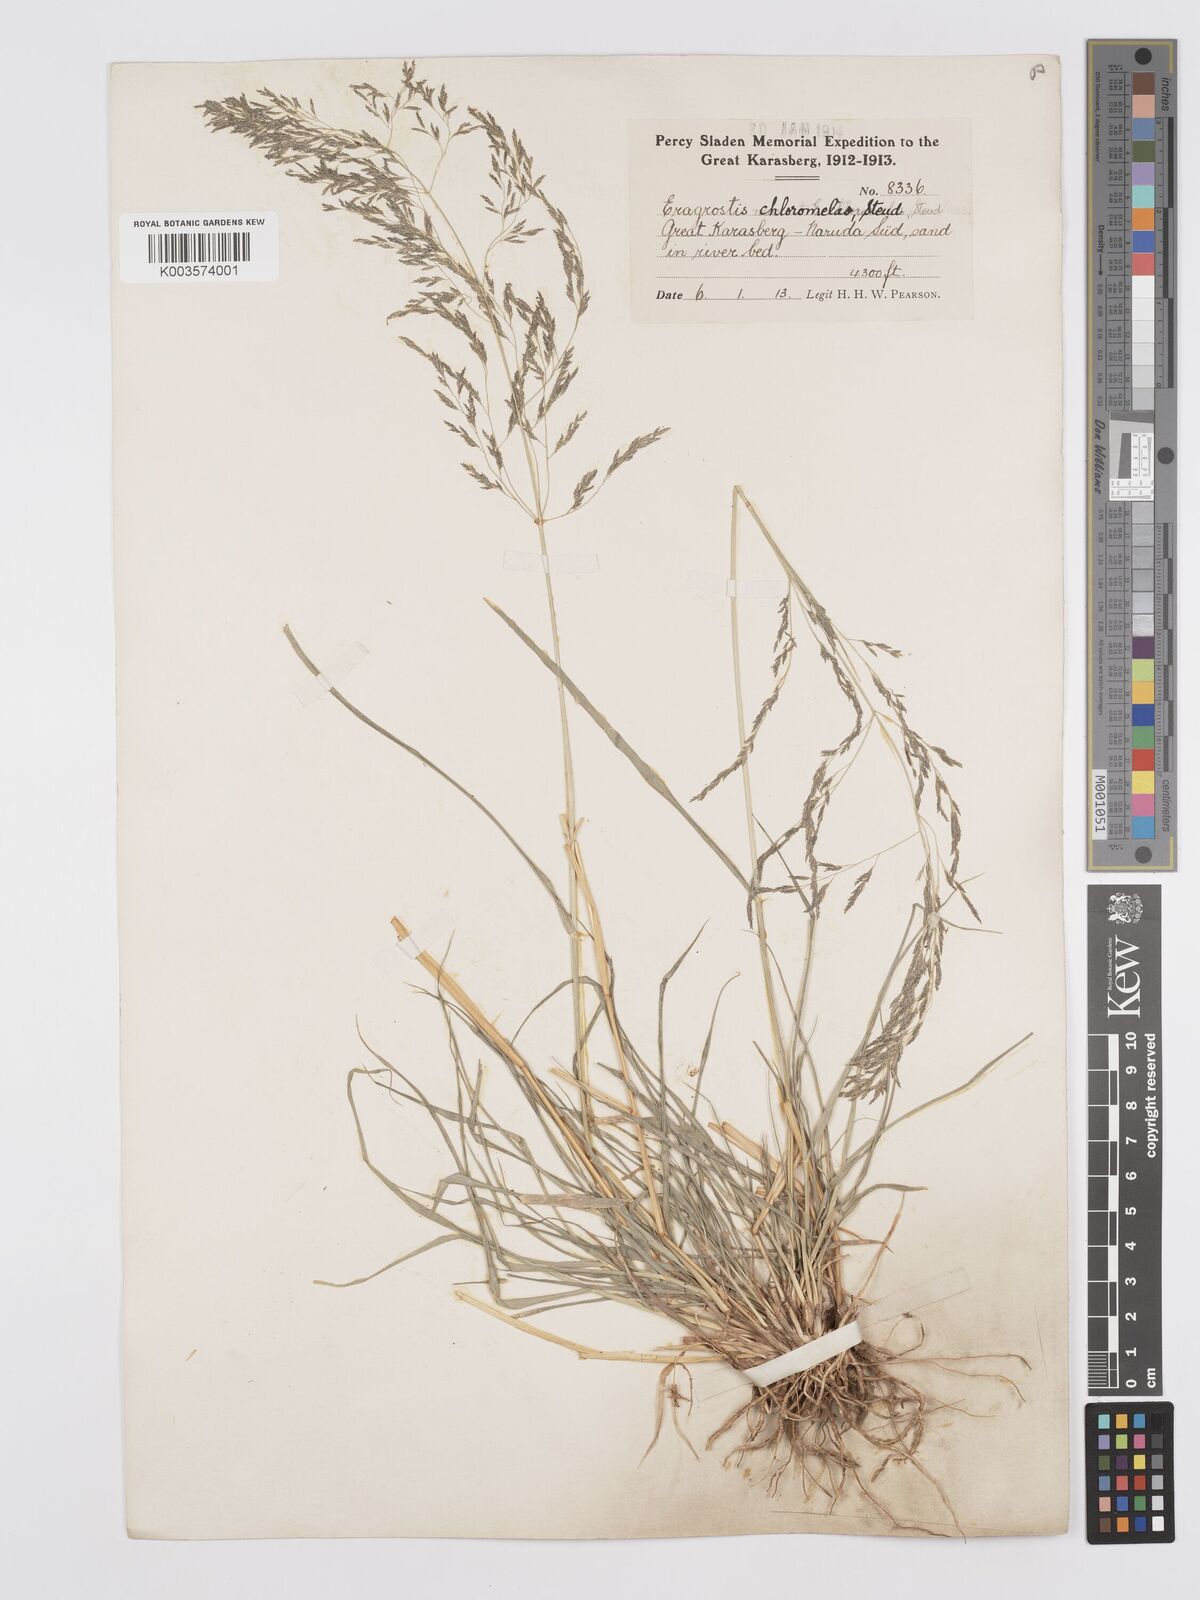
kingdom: Plantae
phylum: Tracheophyta
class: Liliopsida
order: Poales
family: Poaceae
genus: Eragrostis
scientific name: Eragrostis cylindriflora
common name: Cylinderflower lovegrass
